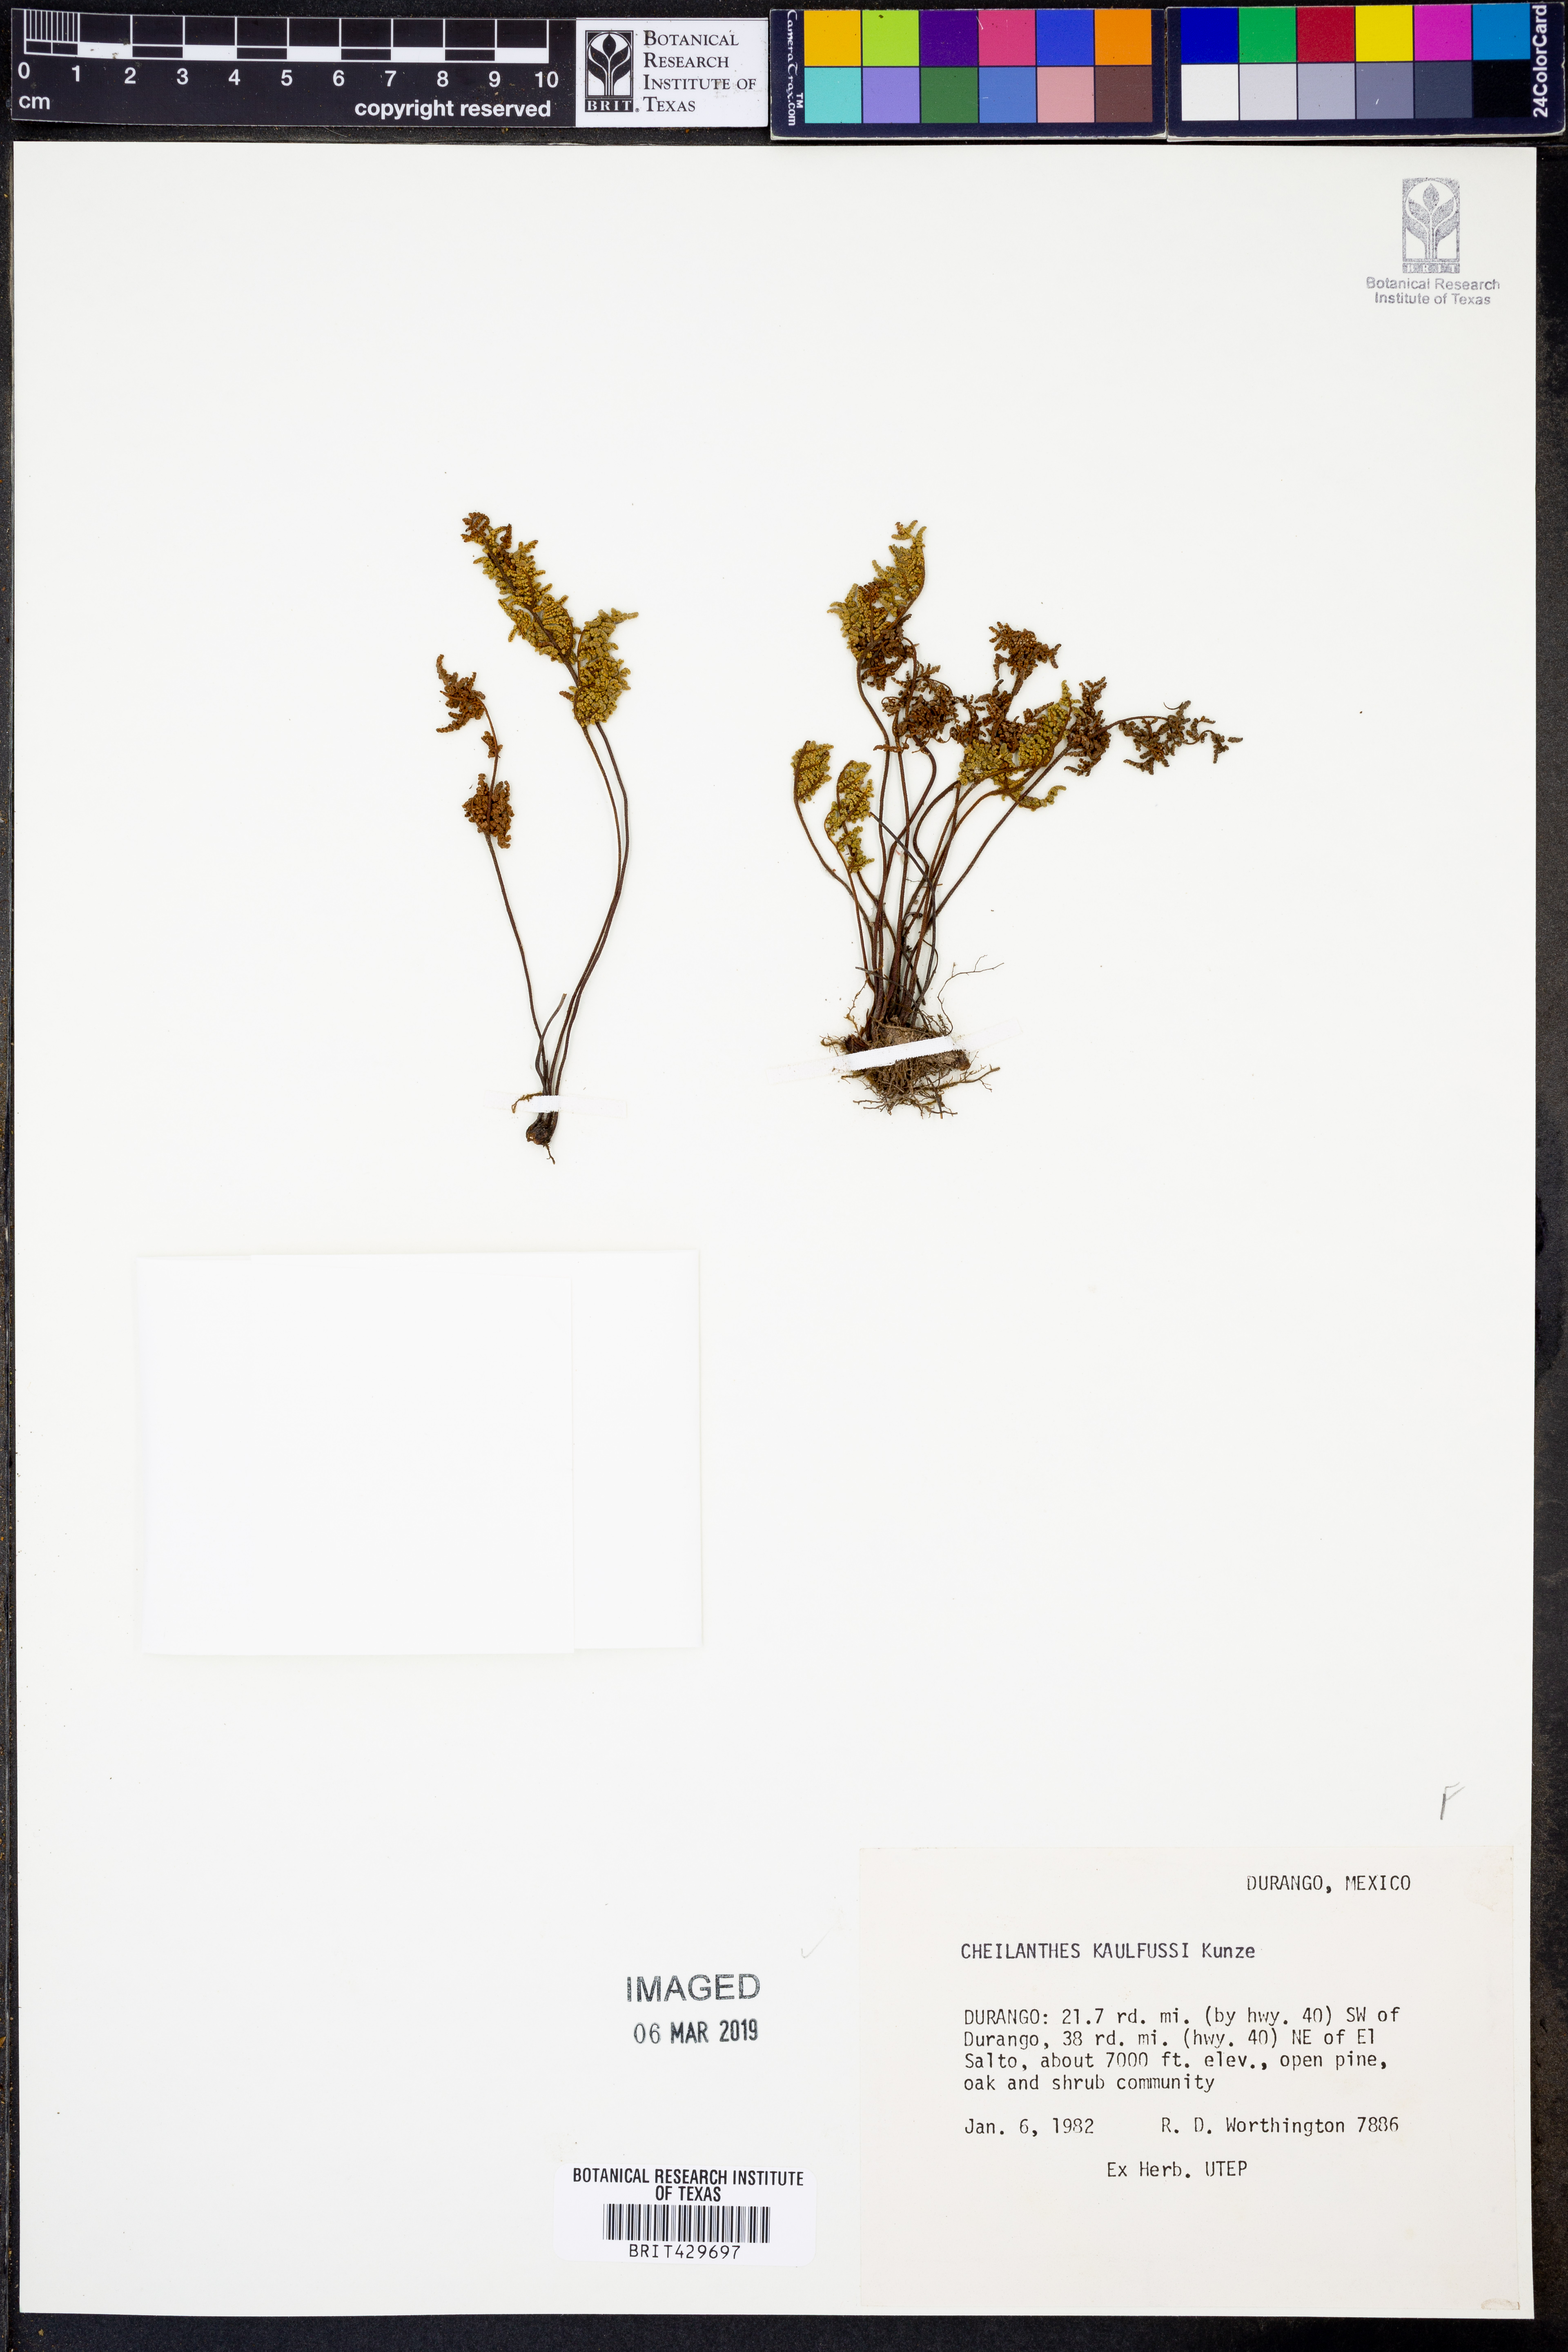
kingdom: Plantae
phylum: Tracheophyta
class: Polypodiopsida
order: Polypodiales
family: Pteridaceae
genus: Gaga
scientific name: Gaga kaulfussii
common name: Glandular lip fern
